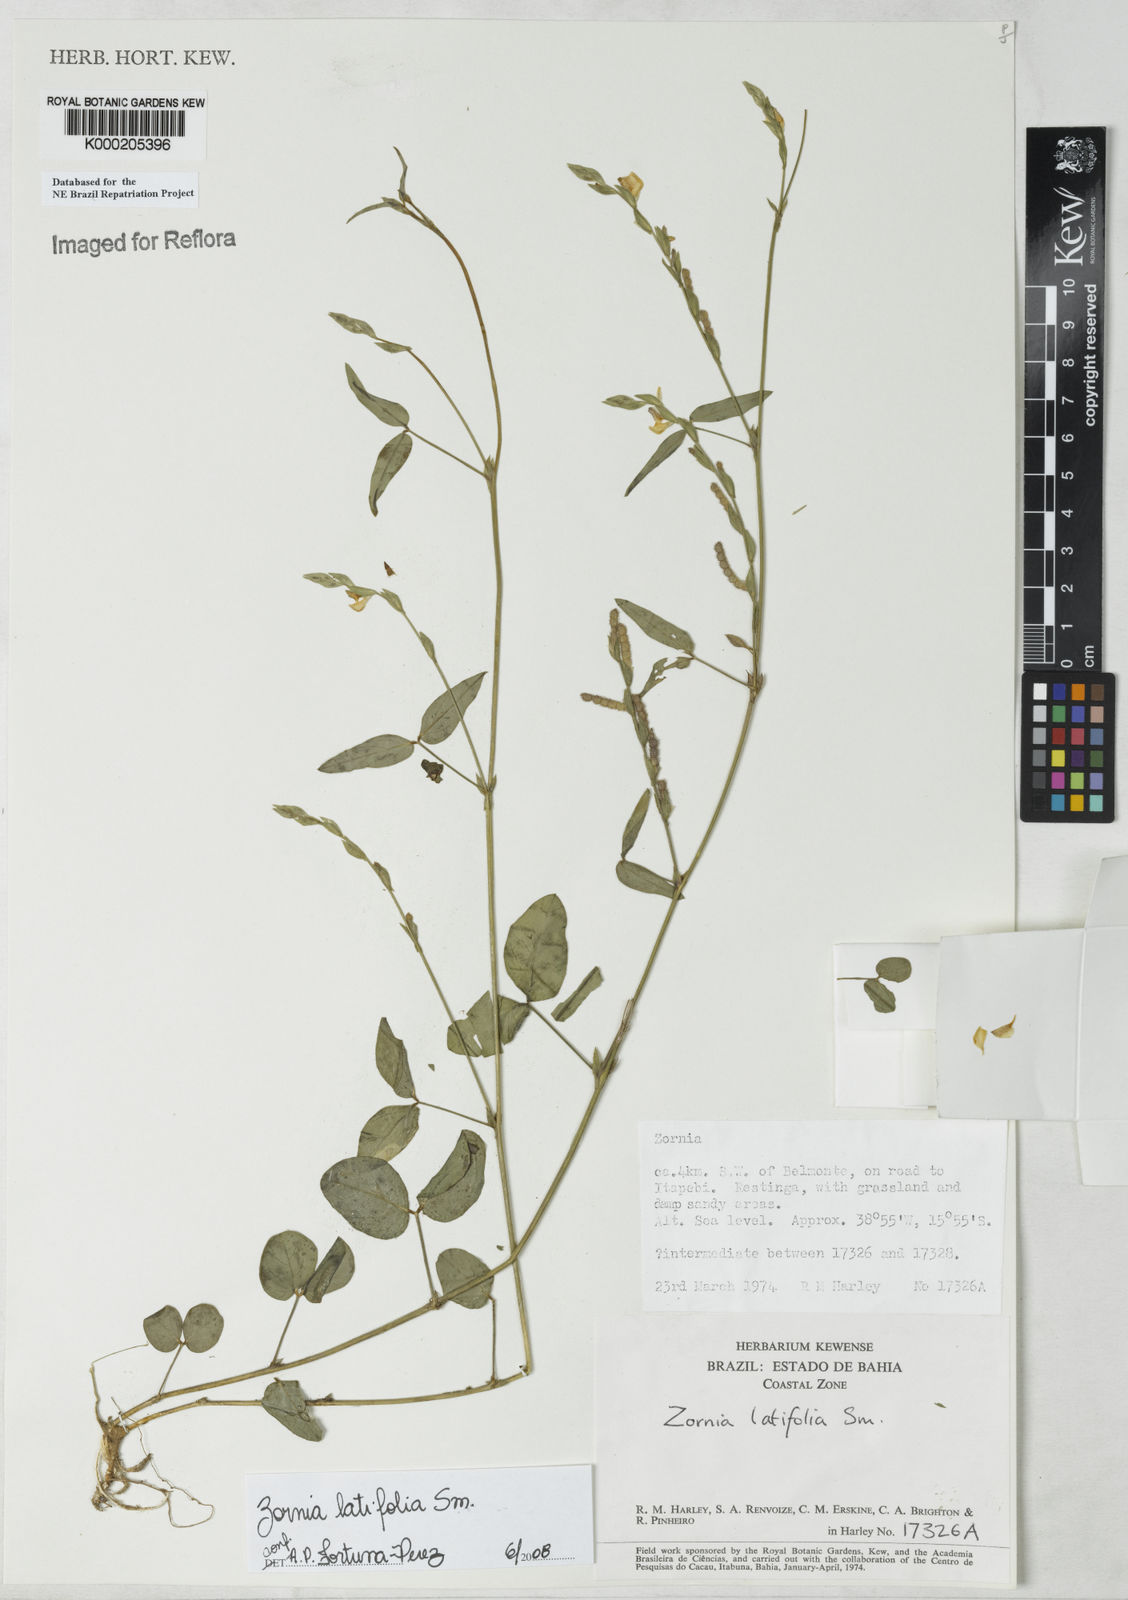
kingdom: Plantae
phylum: Tracheophyta
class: Magnoliopsida
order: Fabales
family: Fabaceae
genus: Zornia
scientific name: Zornia latifolia
